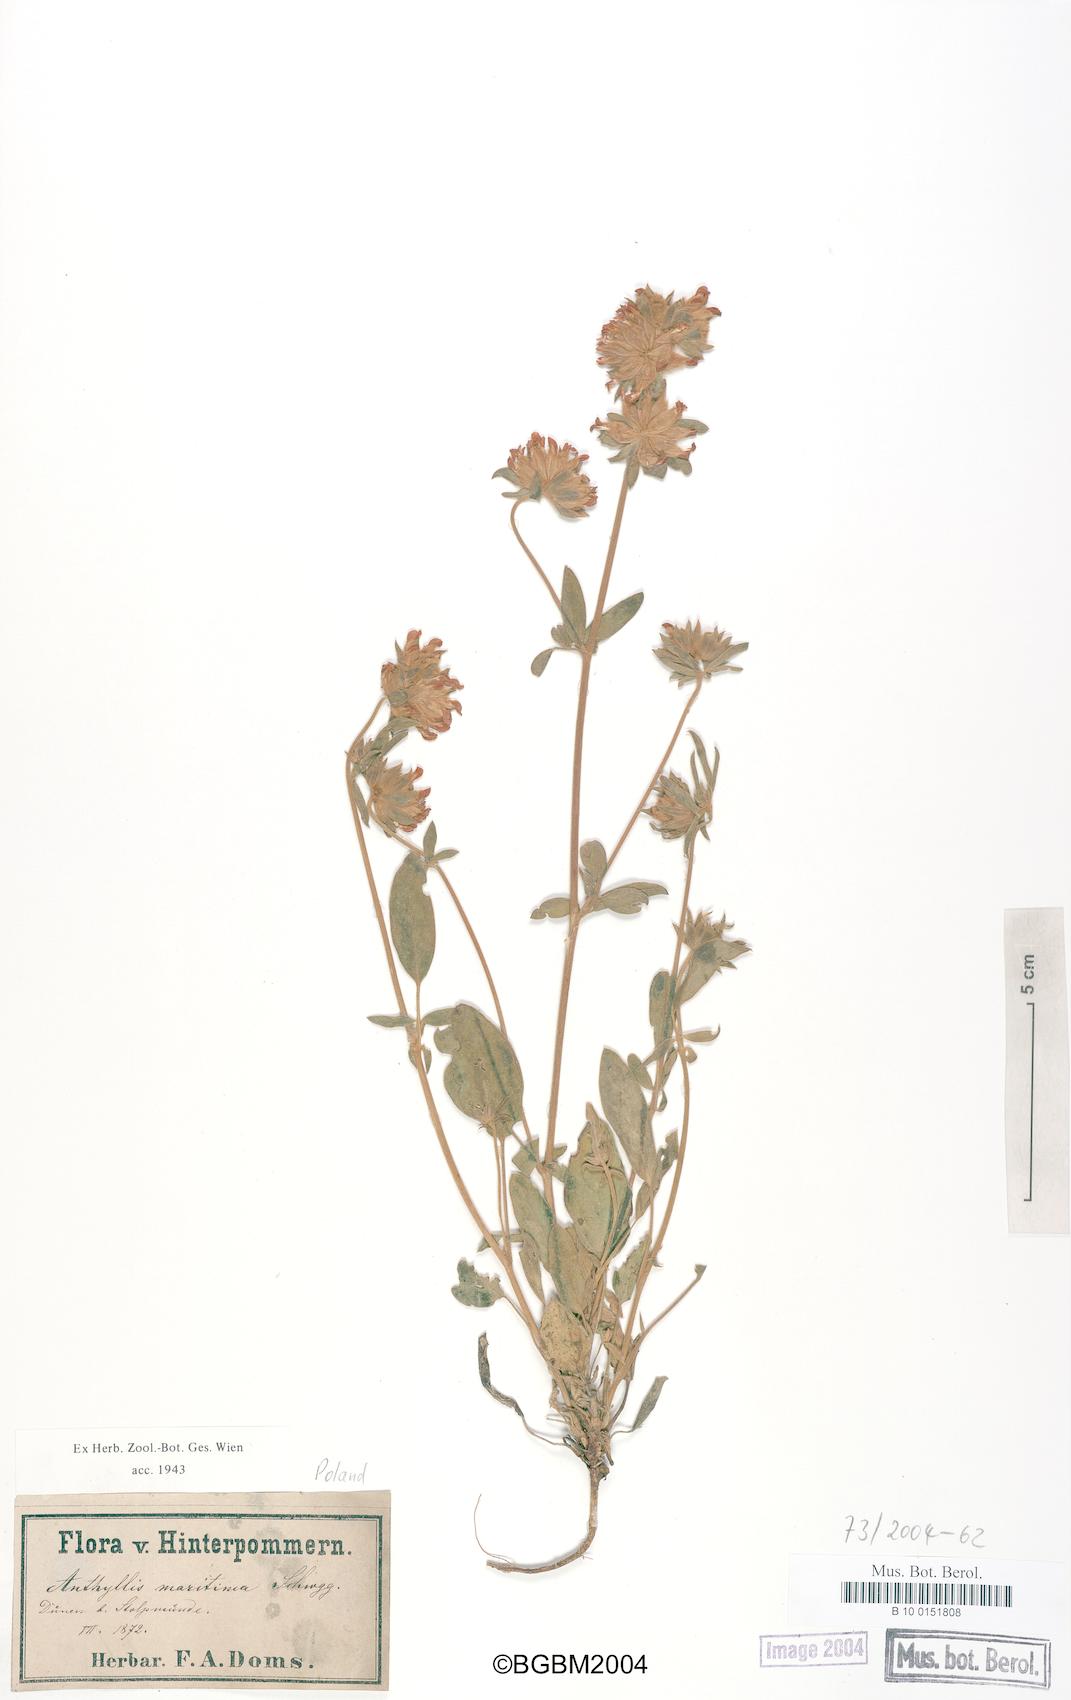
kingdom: Plantae
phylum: Tracheophyta
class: Magnoliopsida
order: Fabales
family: Fabaceae
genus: Anthyllis
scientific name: Anthyllis vulneraria
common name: Kidney vetch
